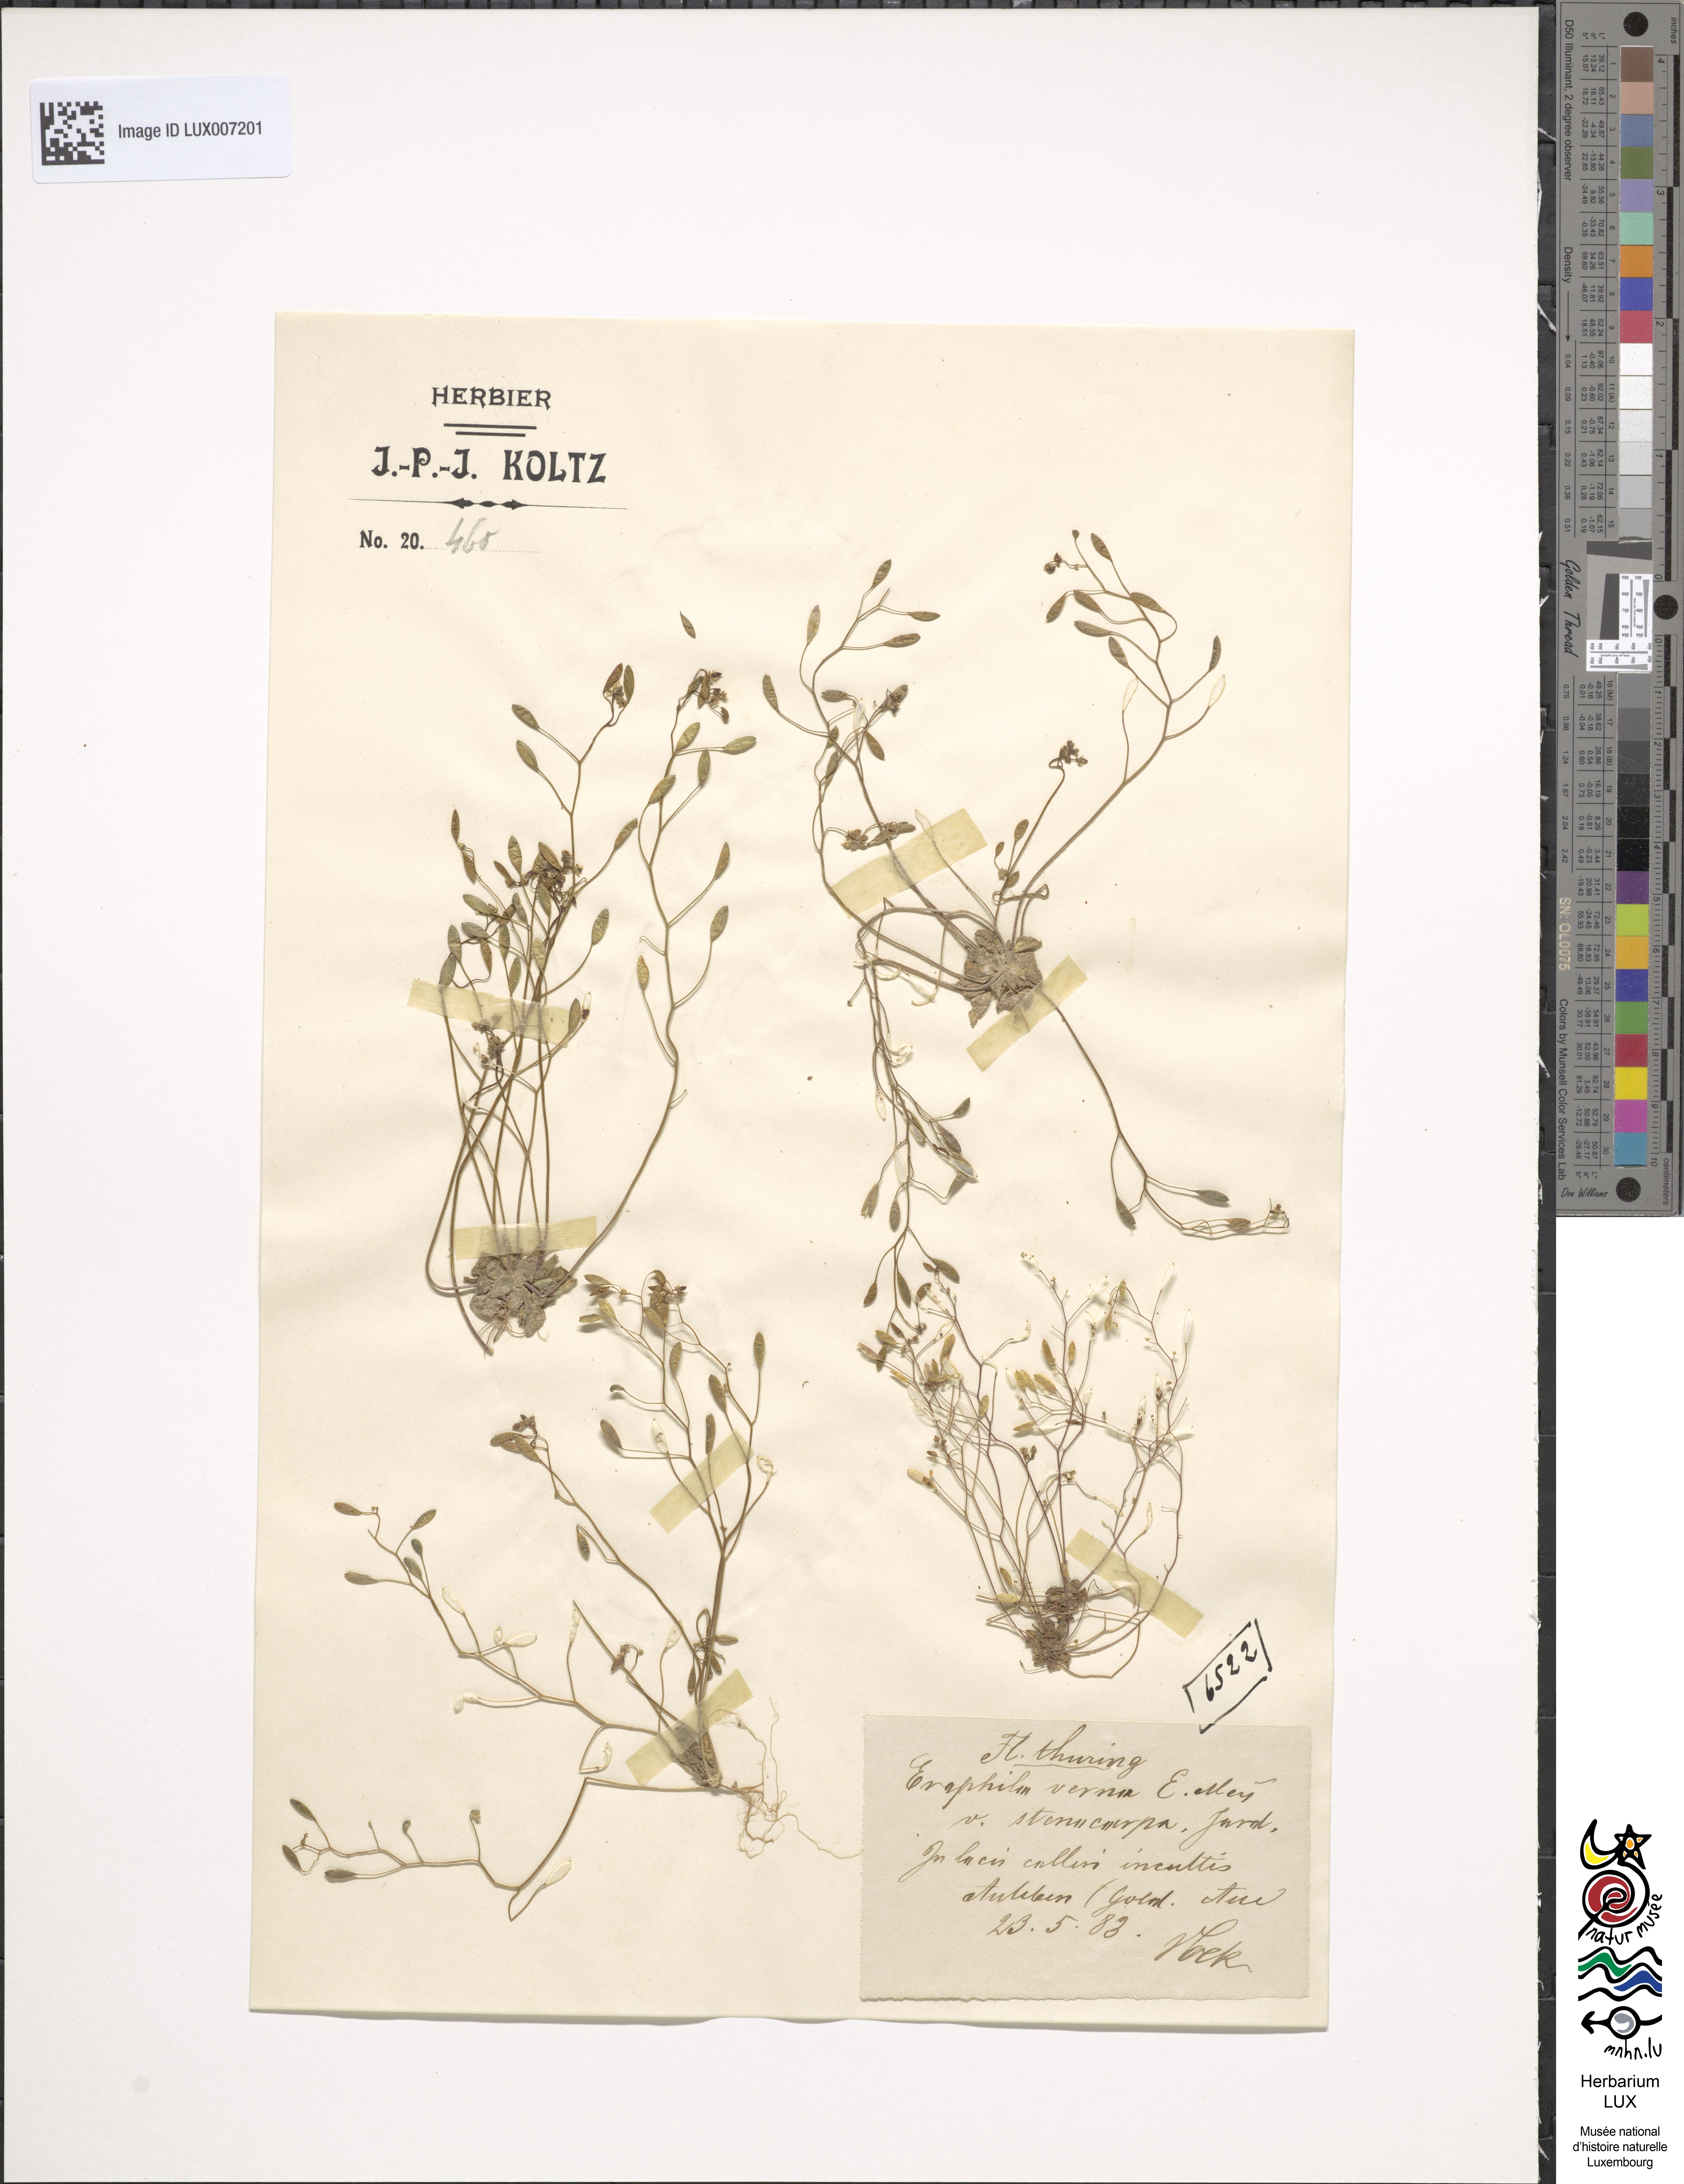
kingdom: Plantae
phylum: Tracheophyta
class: Magnoliopsida
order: Brassicales
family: Brassicaceae
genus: Draba
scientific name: Draba verna
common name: Spring draba
